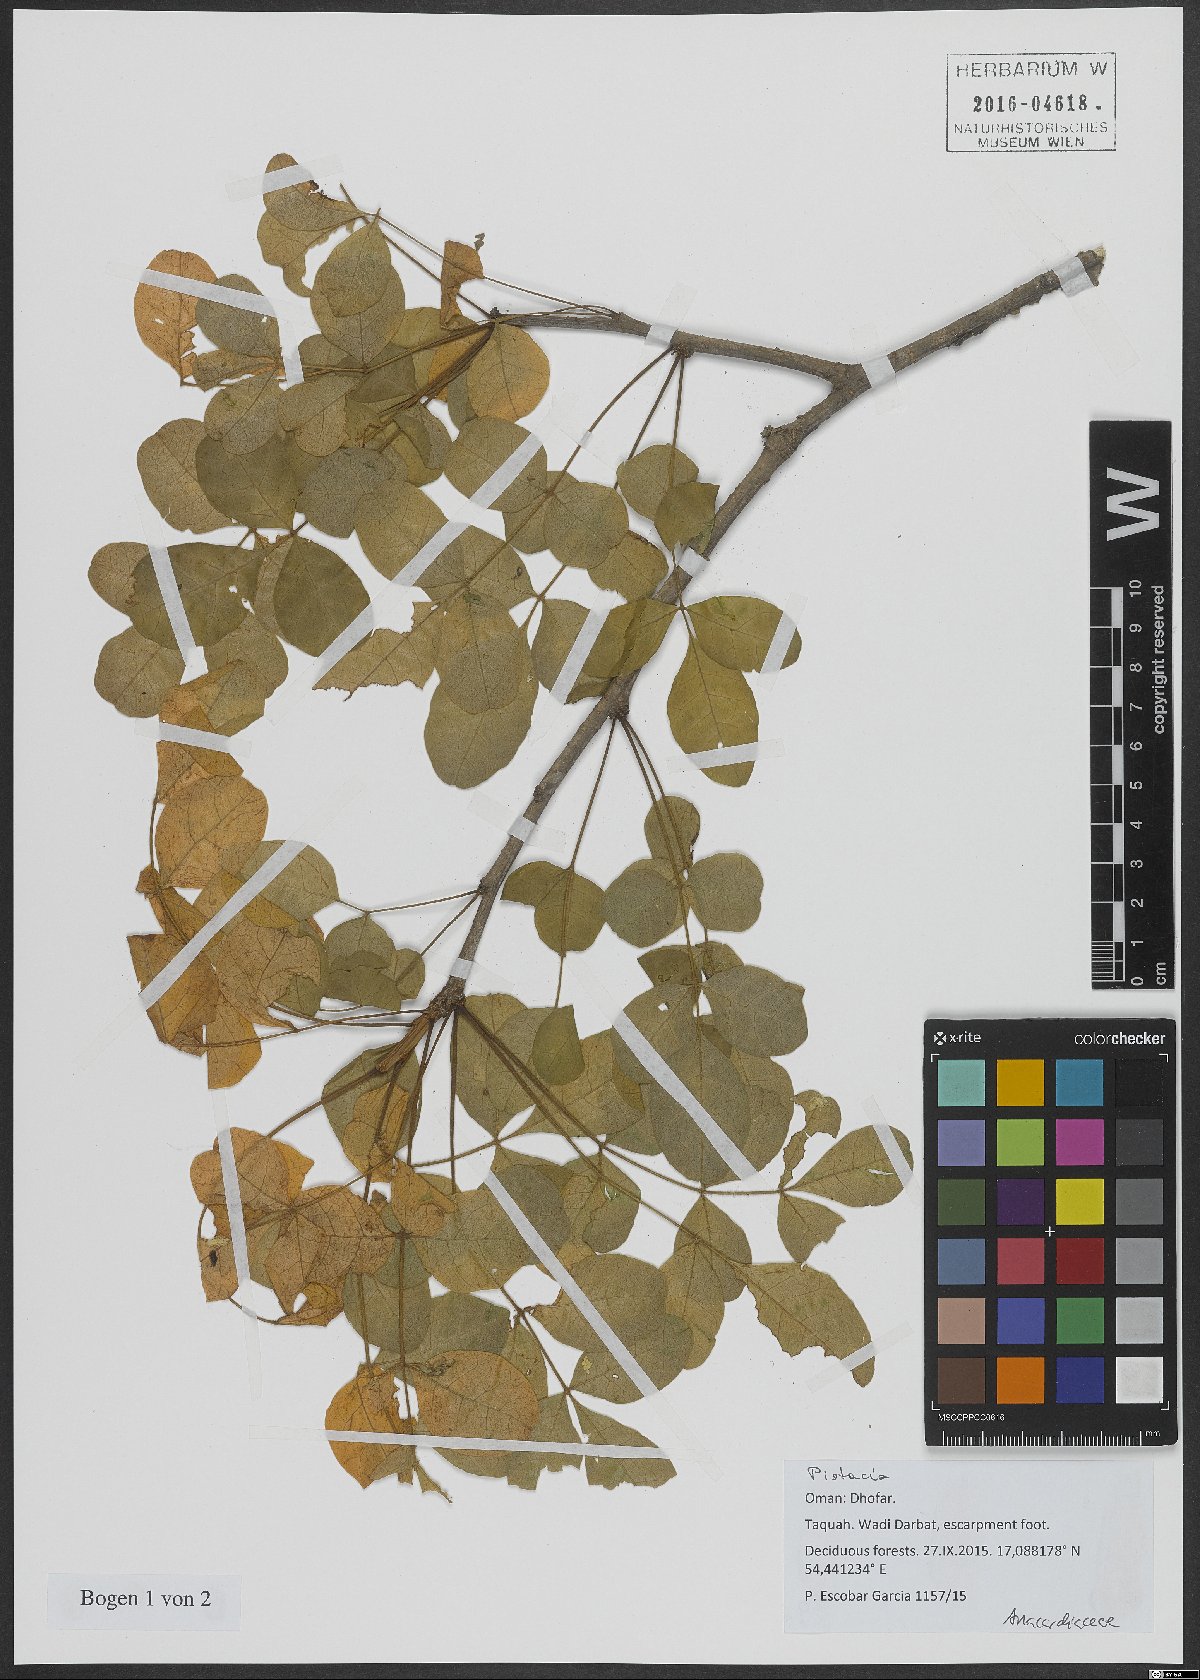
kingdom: Plantae
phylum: Tracheophyta
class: Magnoliopsida
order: Sapindales
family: Anacardiaceae
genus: Pistacia
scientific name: Pistacia
